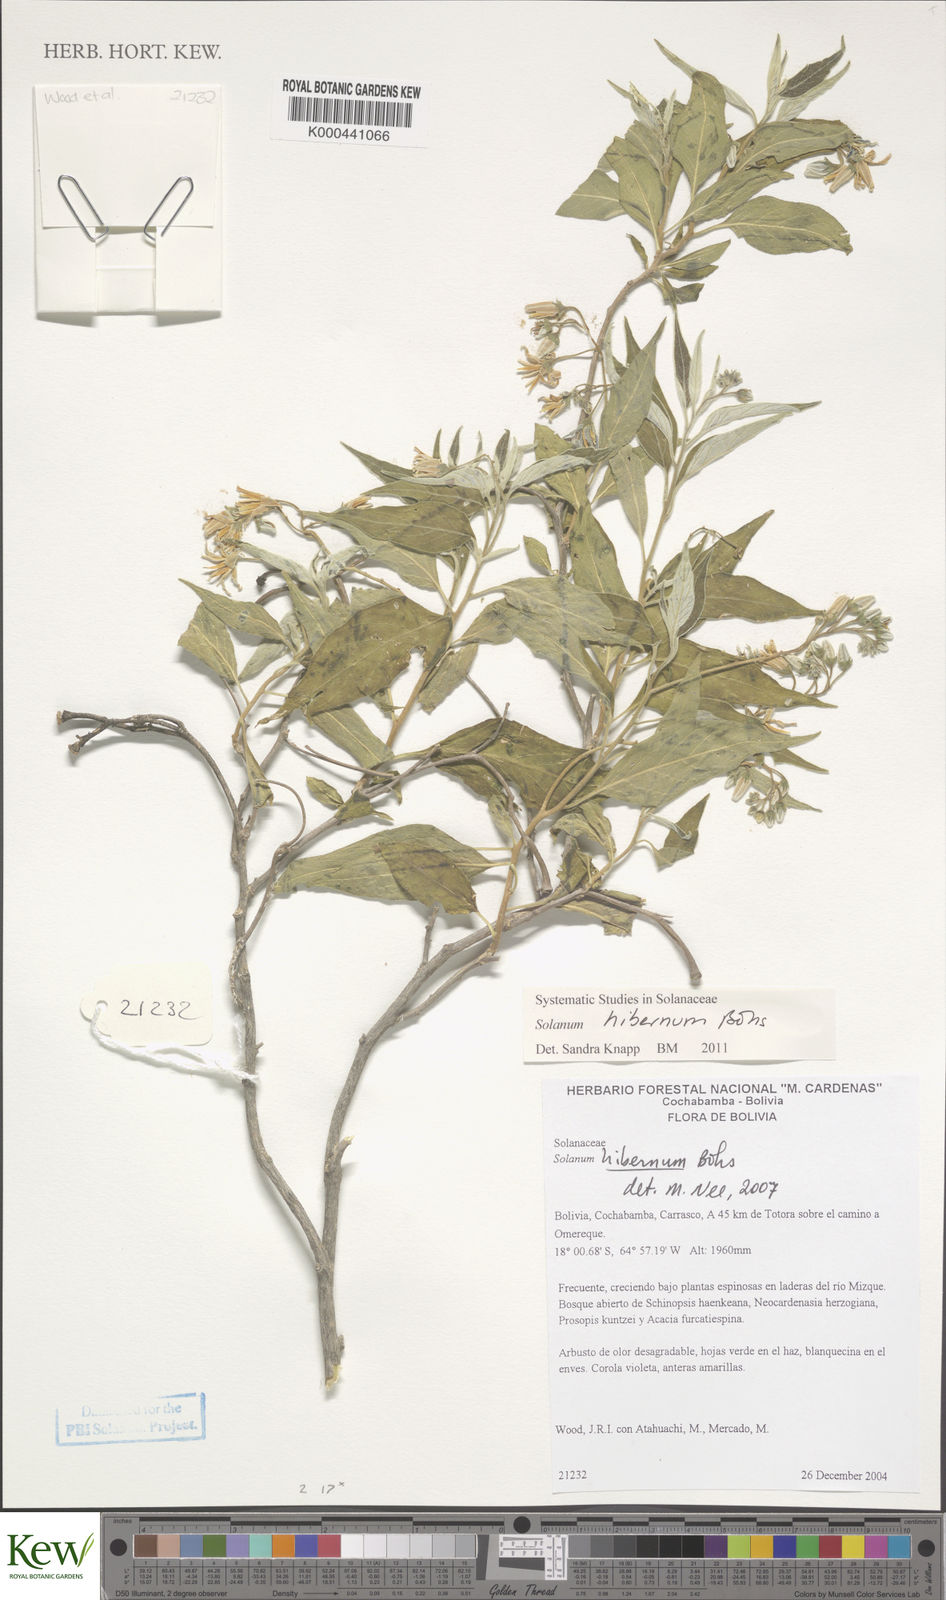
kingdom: Plantae
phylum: Tracheophyta
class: Magnoliopsida
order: Solanales
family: Solanaceae
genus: Solanum
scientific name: Solanum hibernum
